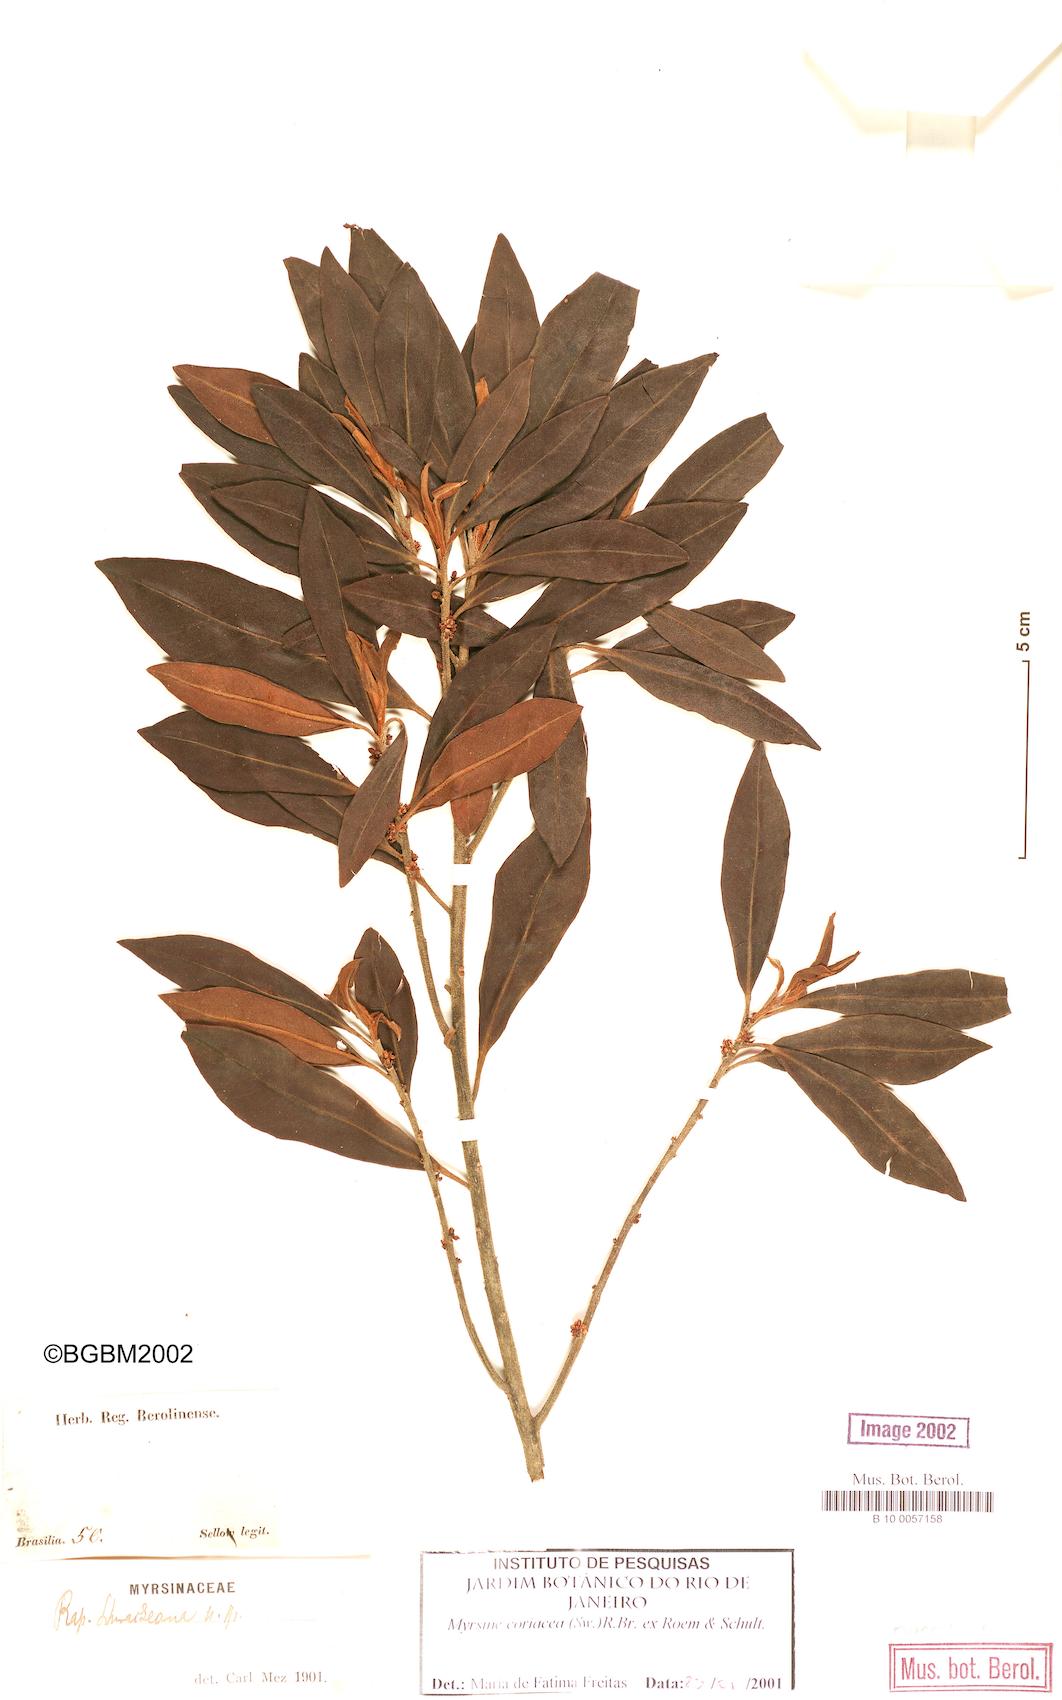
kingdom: Plantae
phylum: Tracheophyta
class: Magnoliopsida
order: Ericales
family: Primulaceae
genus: Myrsine
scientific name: Myrsine coriacea
